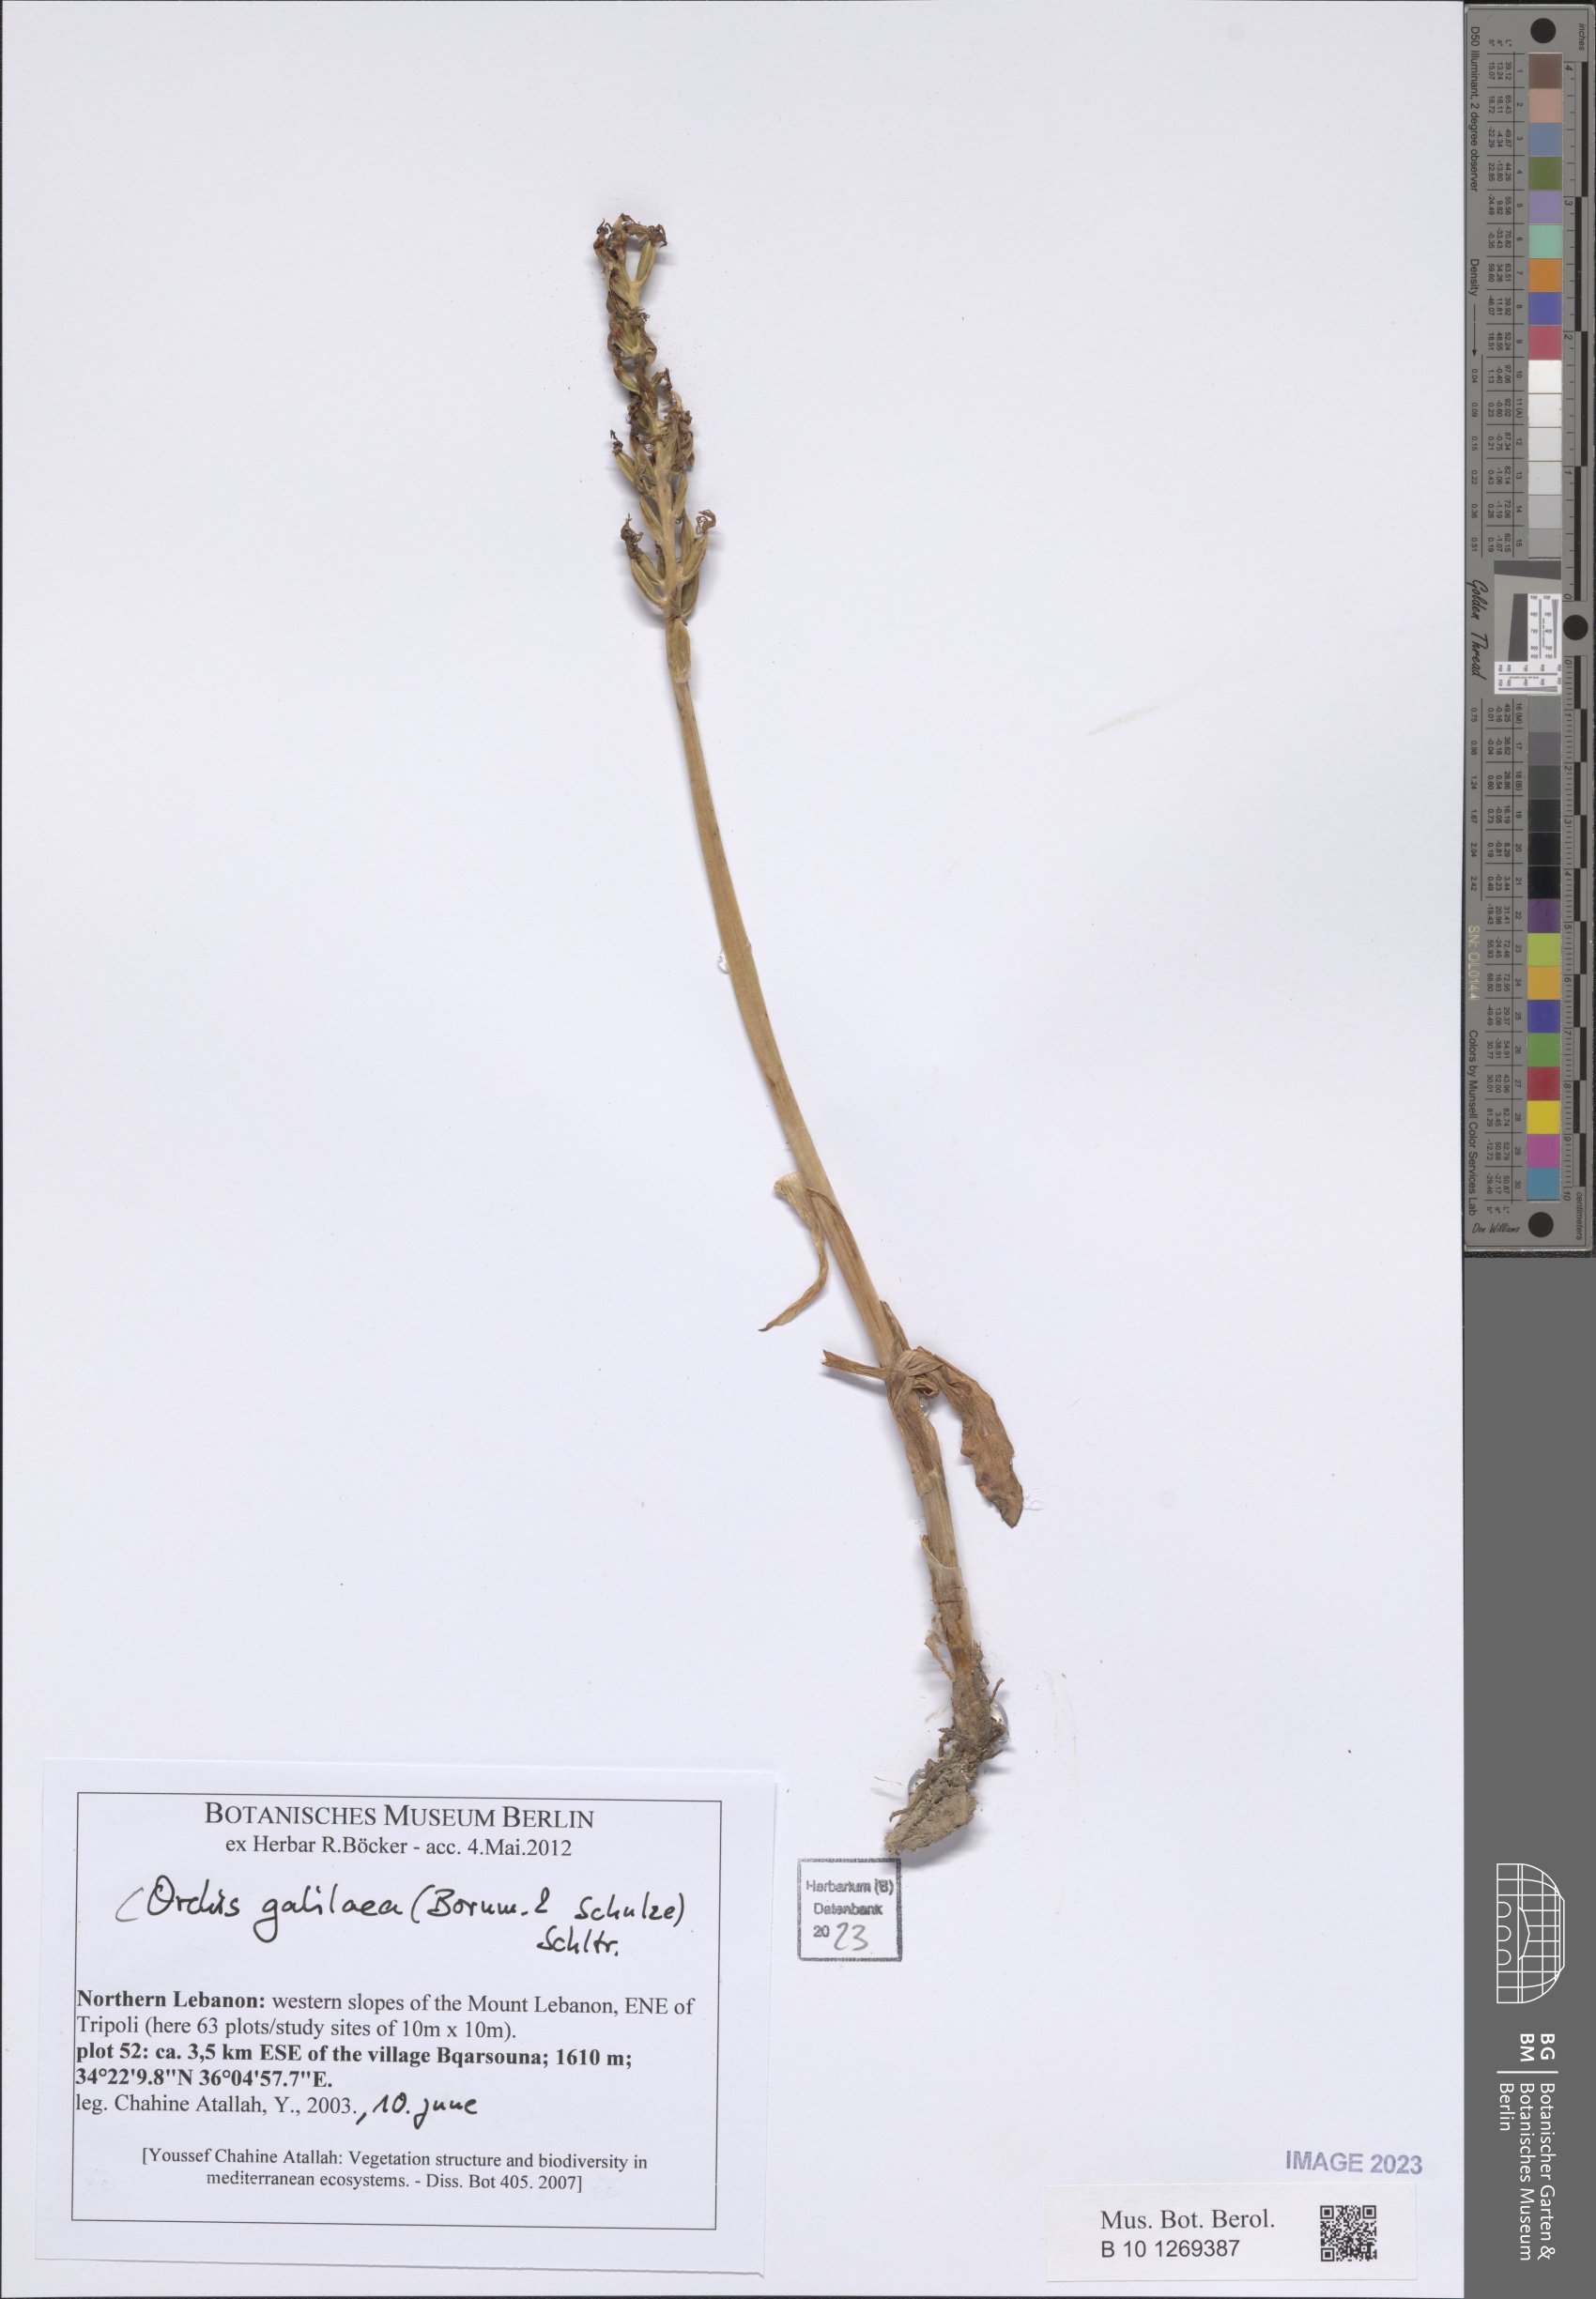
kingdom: Plantae
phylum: Tracheophyta
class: Liliopsida
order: Asparagales
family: Orchidaceae
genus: Orchis
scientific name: Orchis galilaea
